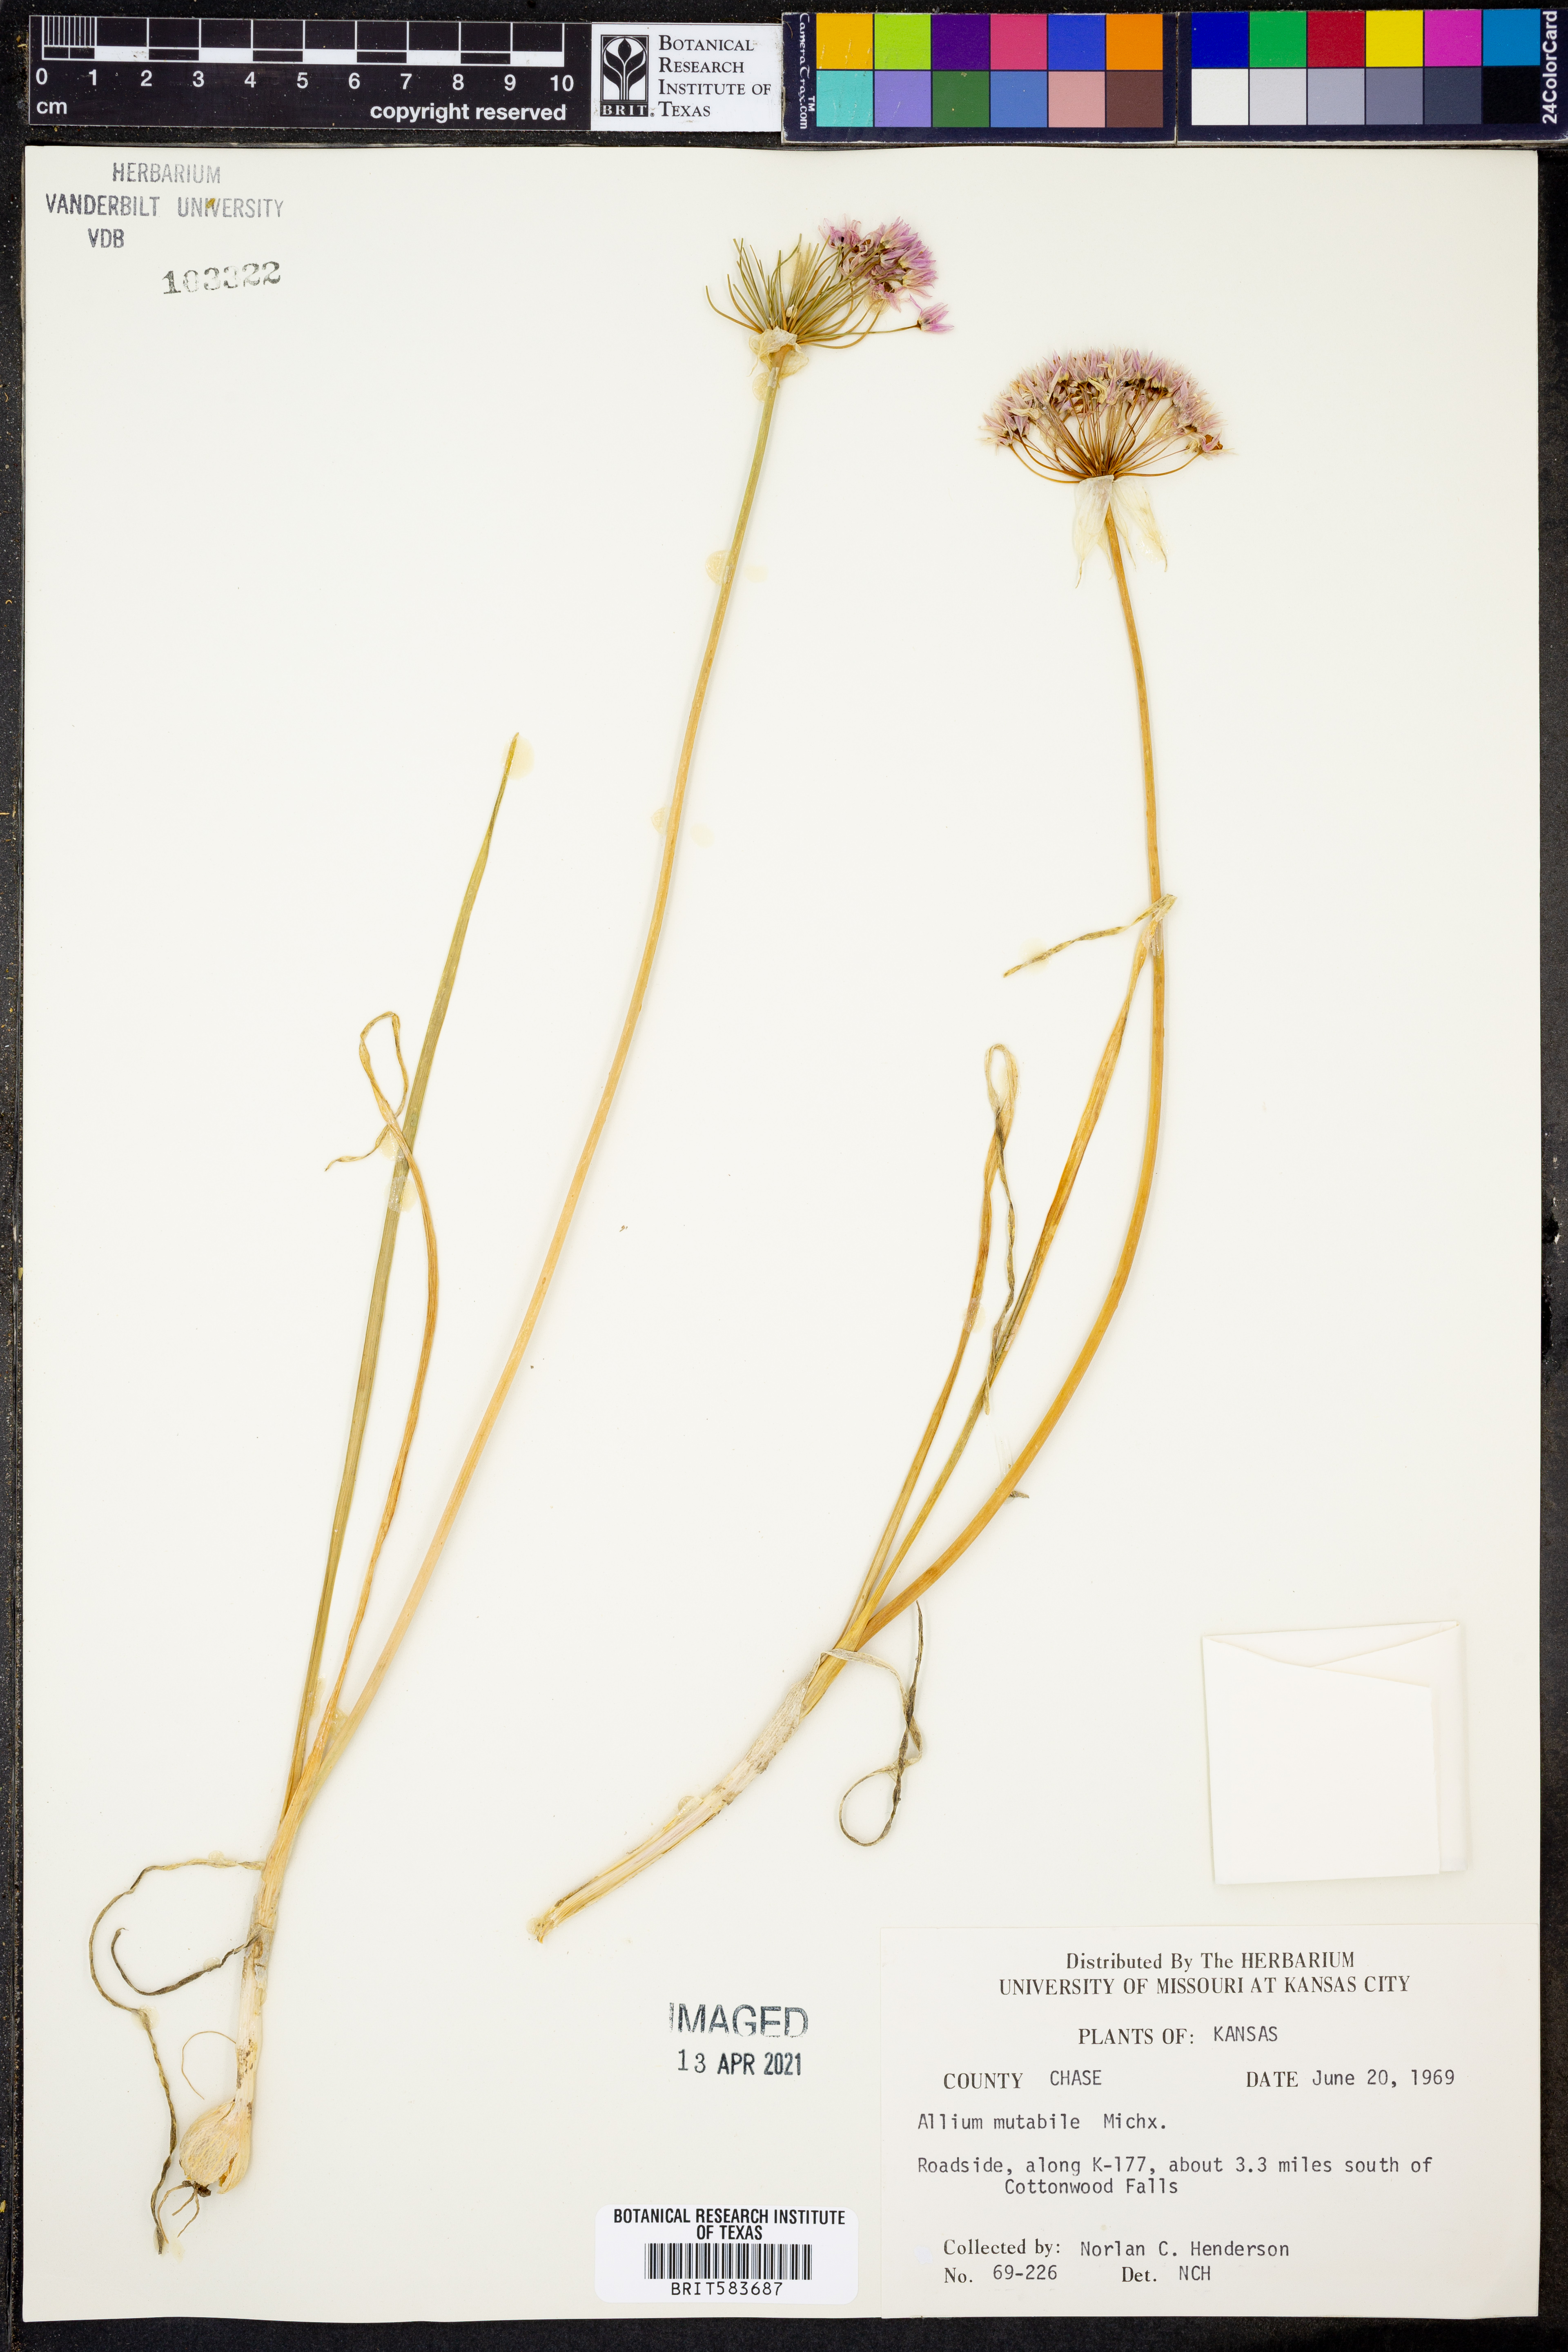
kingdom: Plantae
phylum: Tracheophyta
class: Liliopsida
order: Asparagales
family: Amaryllidaceae
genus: Allium
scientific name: Allium canadense
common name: Meadow garlic
